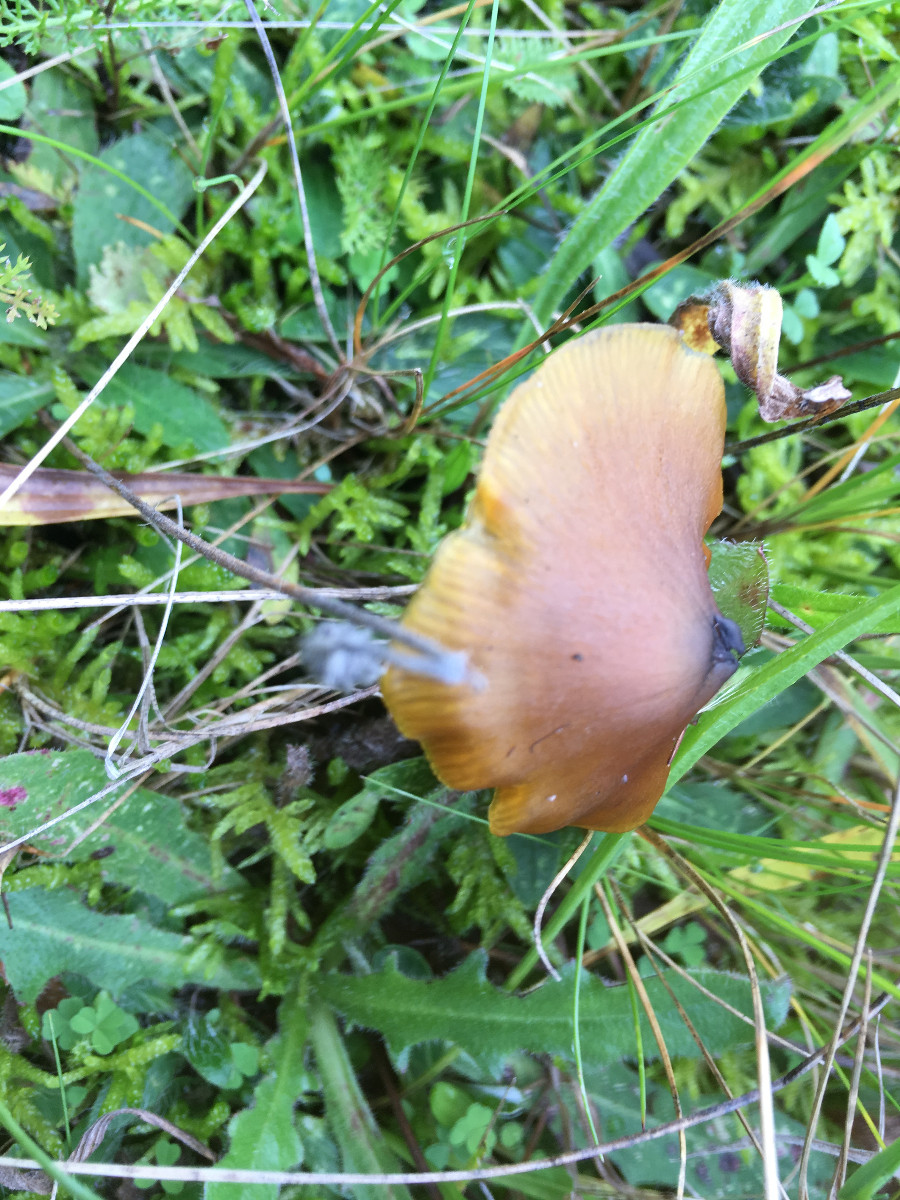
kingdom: Fungi
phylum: Basidiomycota
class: Agaricomycetes
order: Agaricales
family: Hygrophoraceae
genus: Hygrocybe
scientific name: Hygrocybe conica
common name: kegle-vokshat
